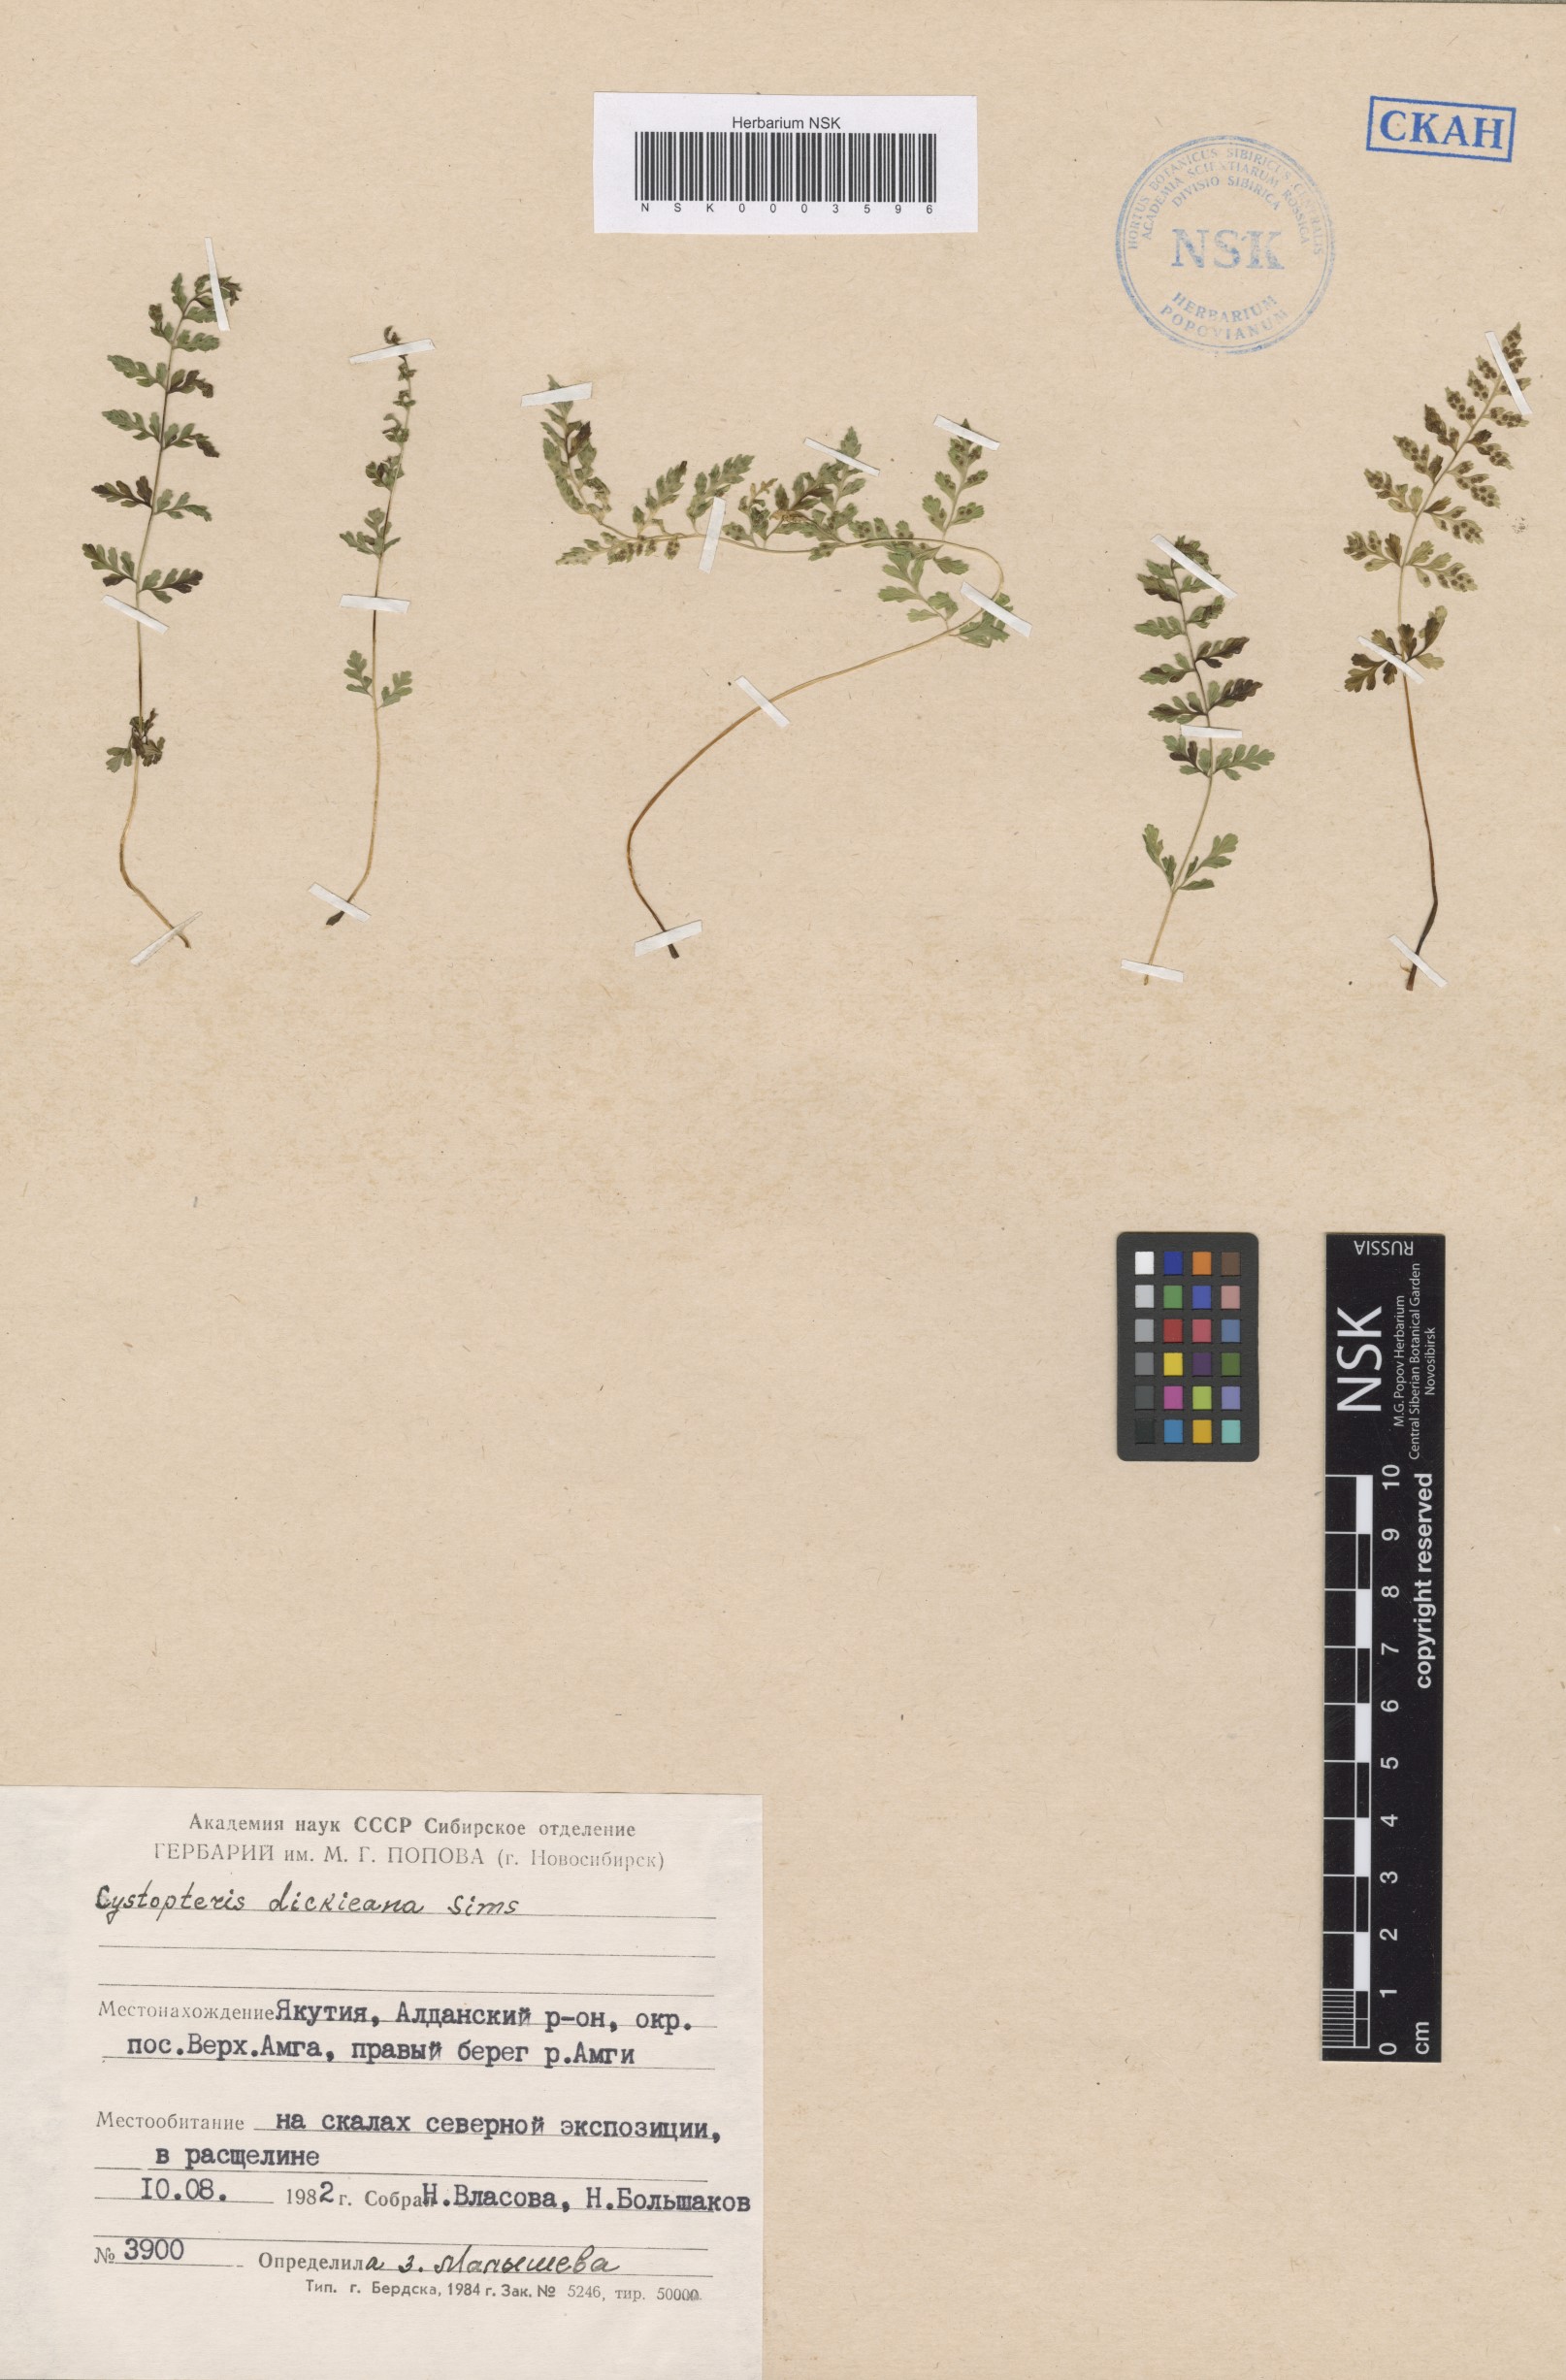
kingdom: Plantae
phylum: Tracheophyta
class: Polypodiopsida
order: Polypodiales
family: Cystopteridaceae
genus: Cystopteris
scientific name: Cystopteris dickieana
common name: Dickie's bladder-fern
